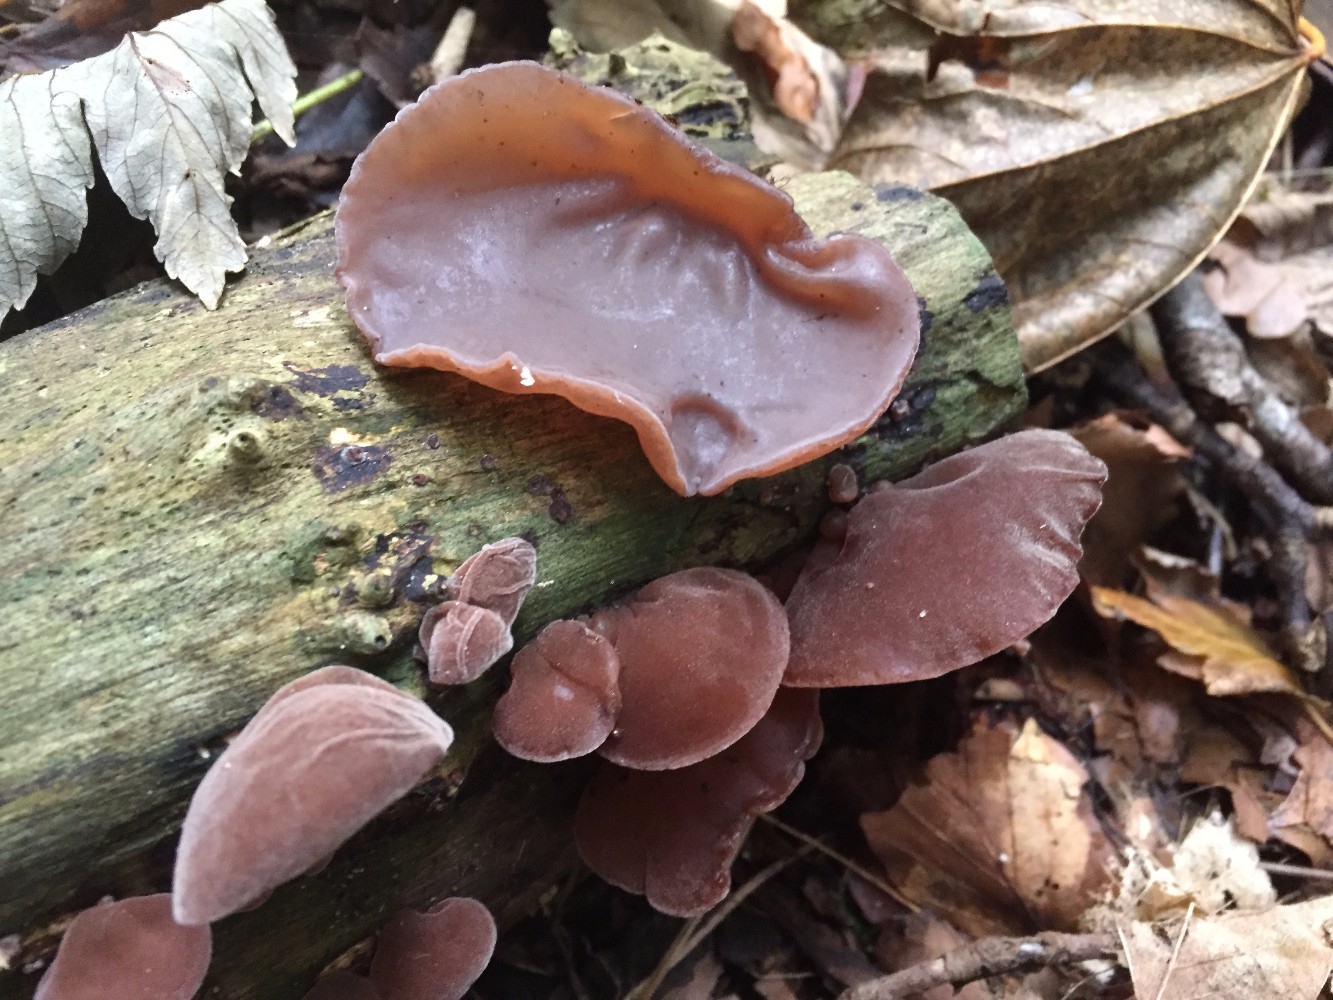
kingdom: Fungi
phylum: Basidiomycota
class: Agaricomycetes
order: Auriculariales
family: Auriculariaceae
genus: Auricularia
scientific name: Auricularia auricula-judae
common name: almindelig judasøre
